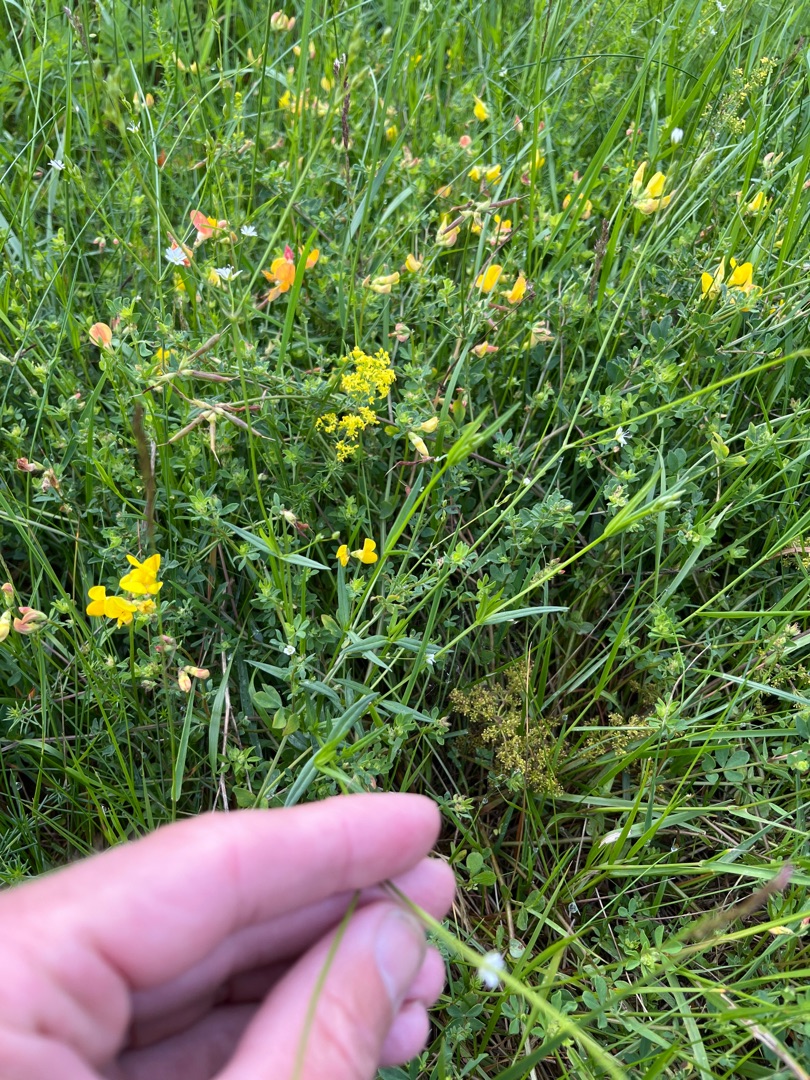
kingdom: Plantae
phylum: Tracheophyta
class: Magnoliopsida
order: Caryophyllales
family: Caryophyllaceae
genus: Stellaria
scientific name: Stellaria graminea
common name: Græsbladet fladstjerne
